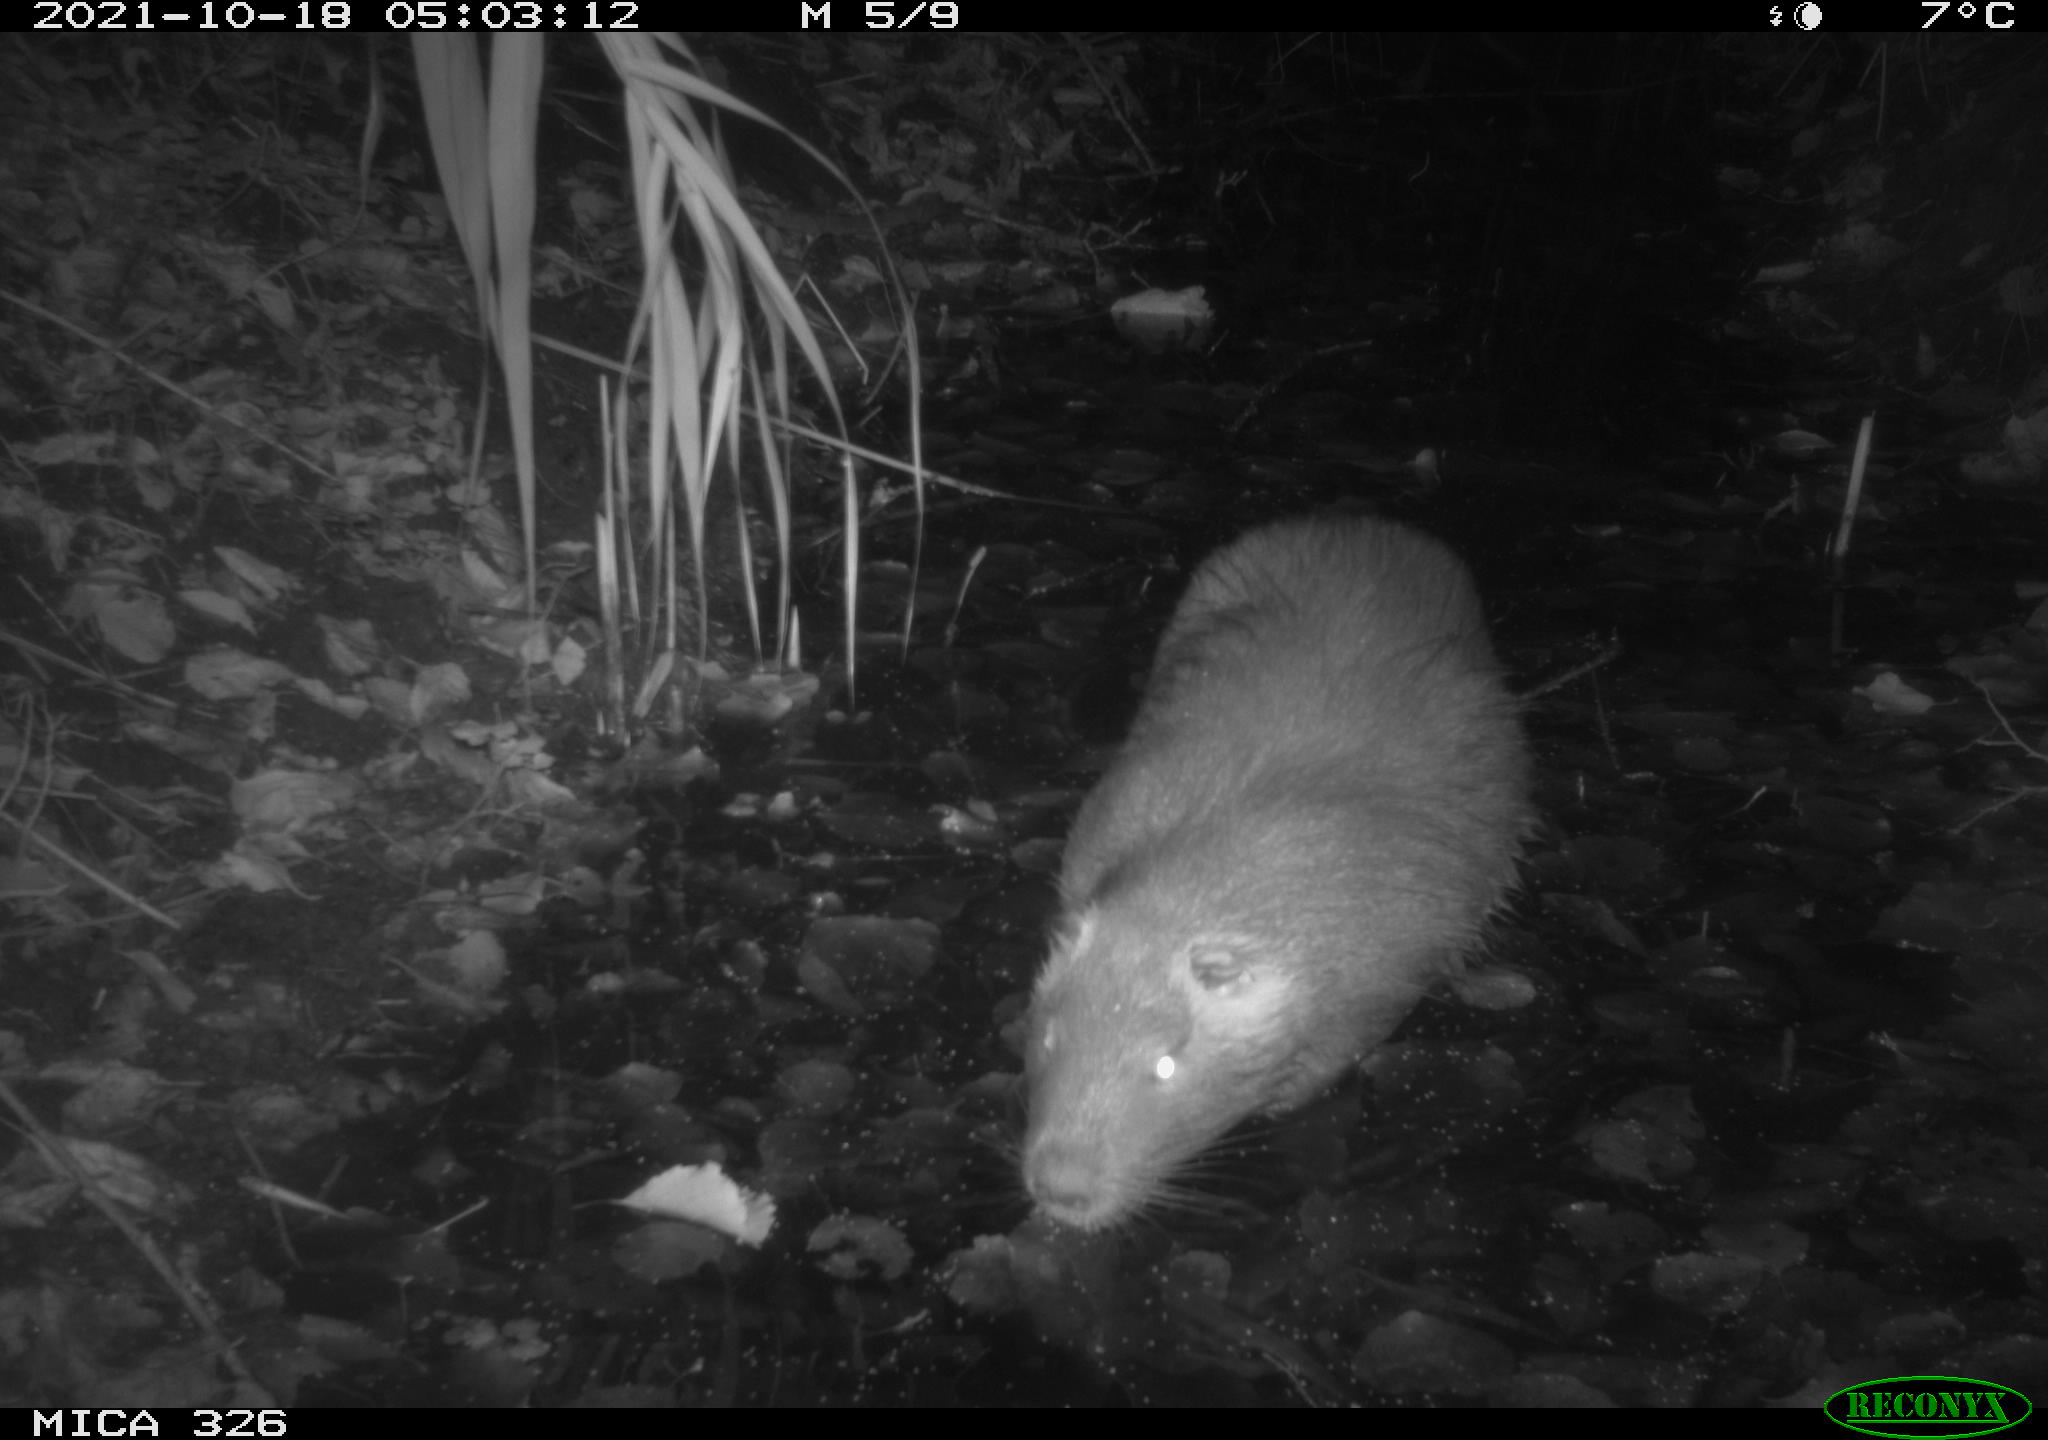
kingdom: Animalia
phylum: Chordata
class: Mammalia
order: Rodentia
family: Myocastoridae
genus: Myocastor
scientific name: Myocastor coypus
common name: Coypu
